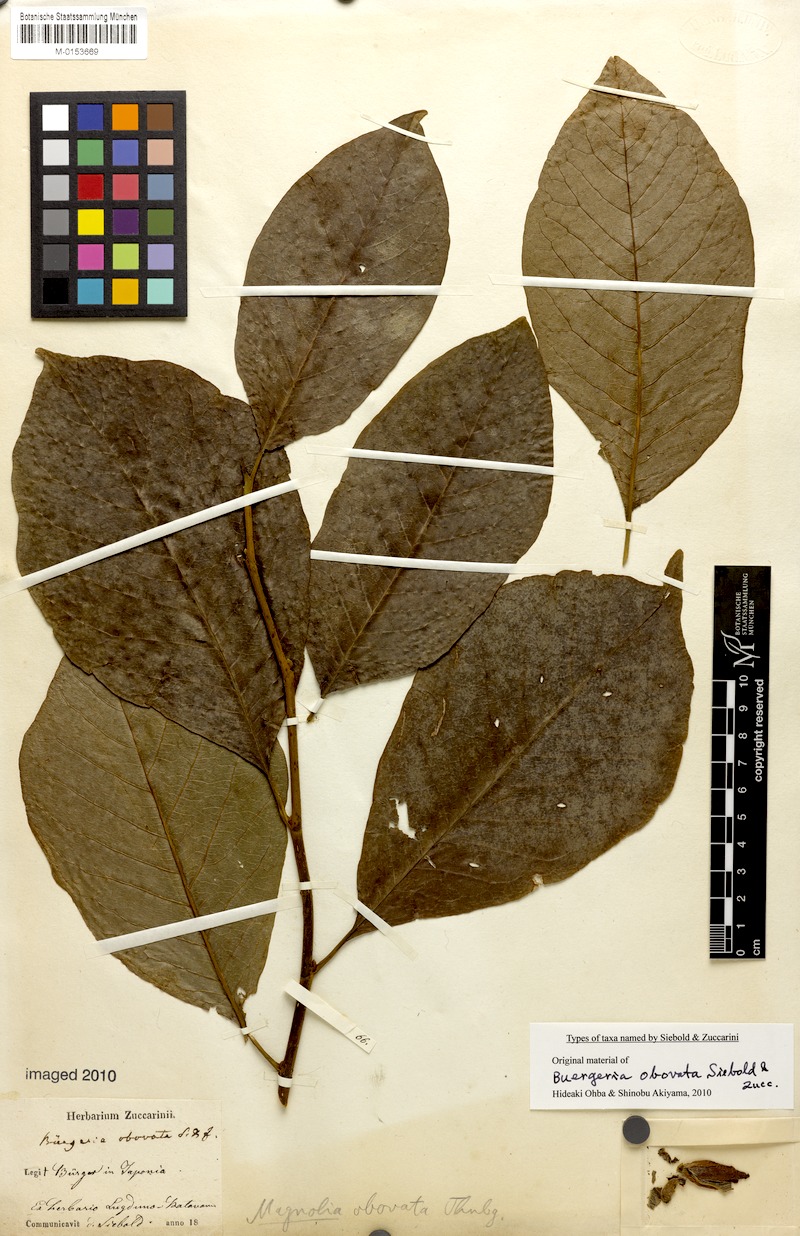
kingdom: Plantae
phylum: Tracheophyta
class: Magnoliopsida
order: Magnoliales
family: Magnoliaceae
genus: Magnolia
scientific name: Magnolia kobus
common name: Kobus magnolia
